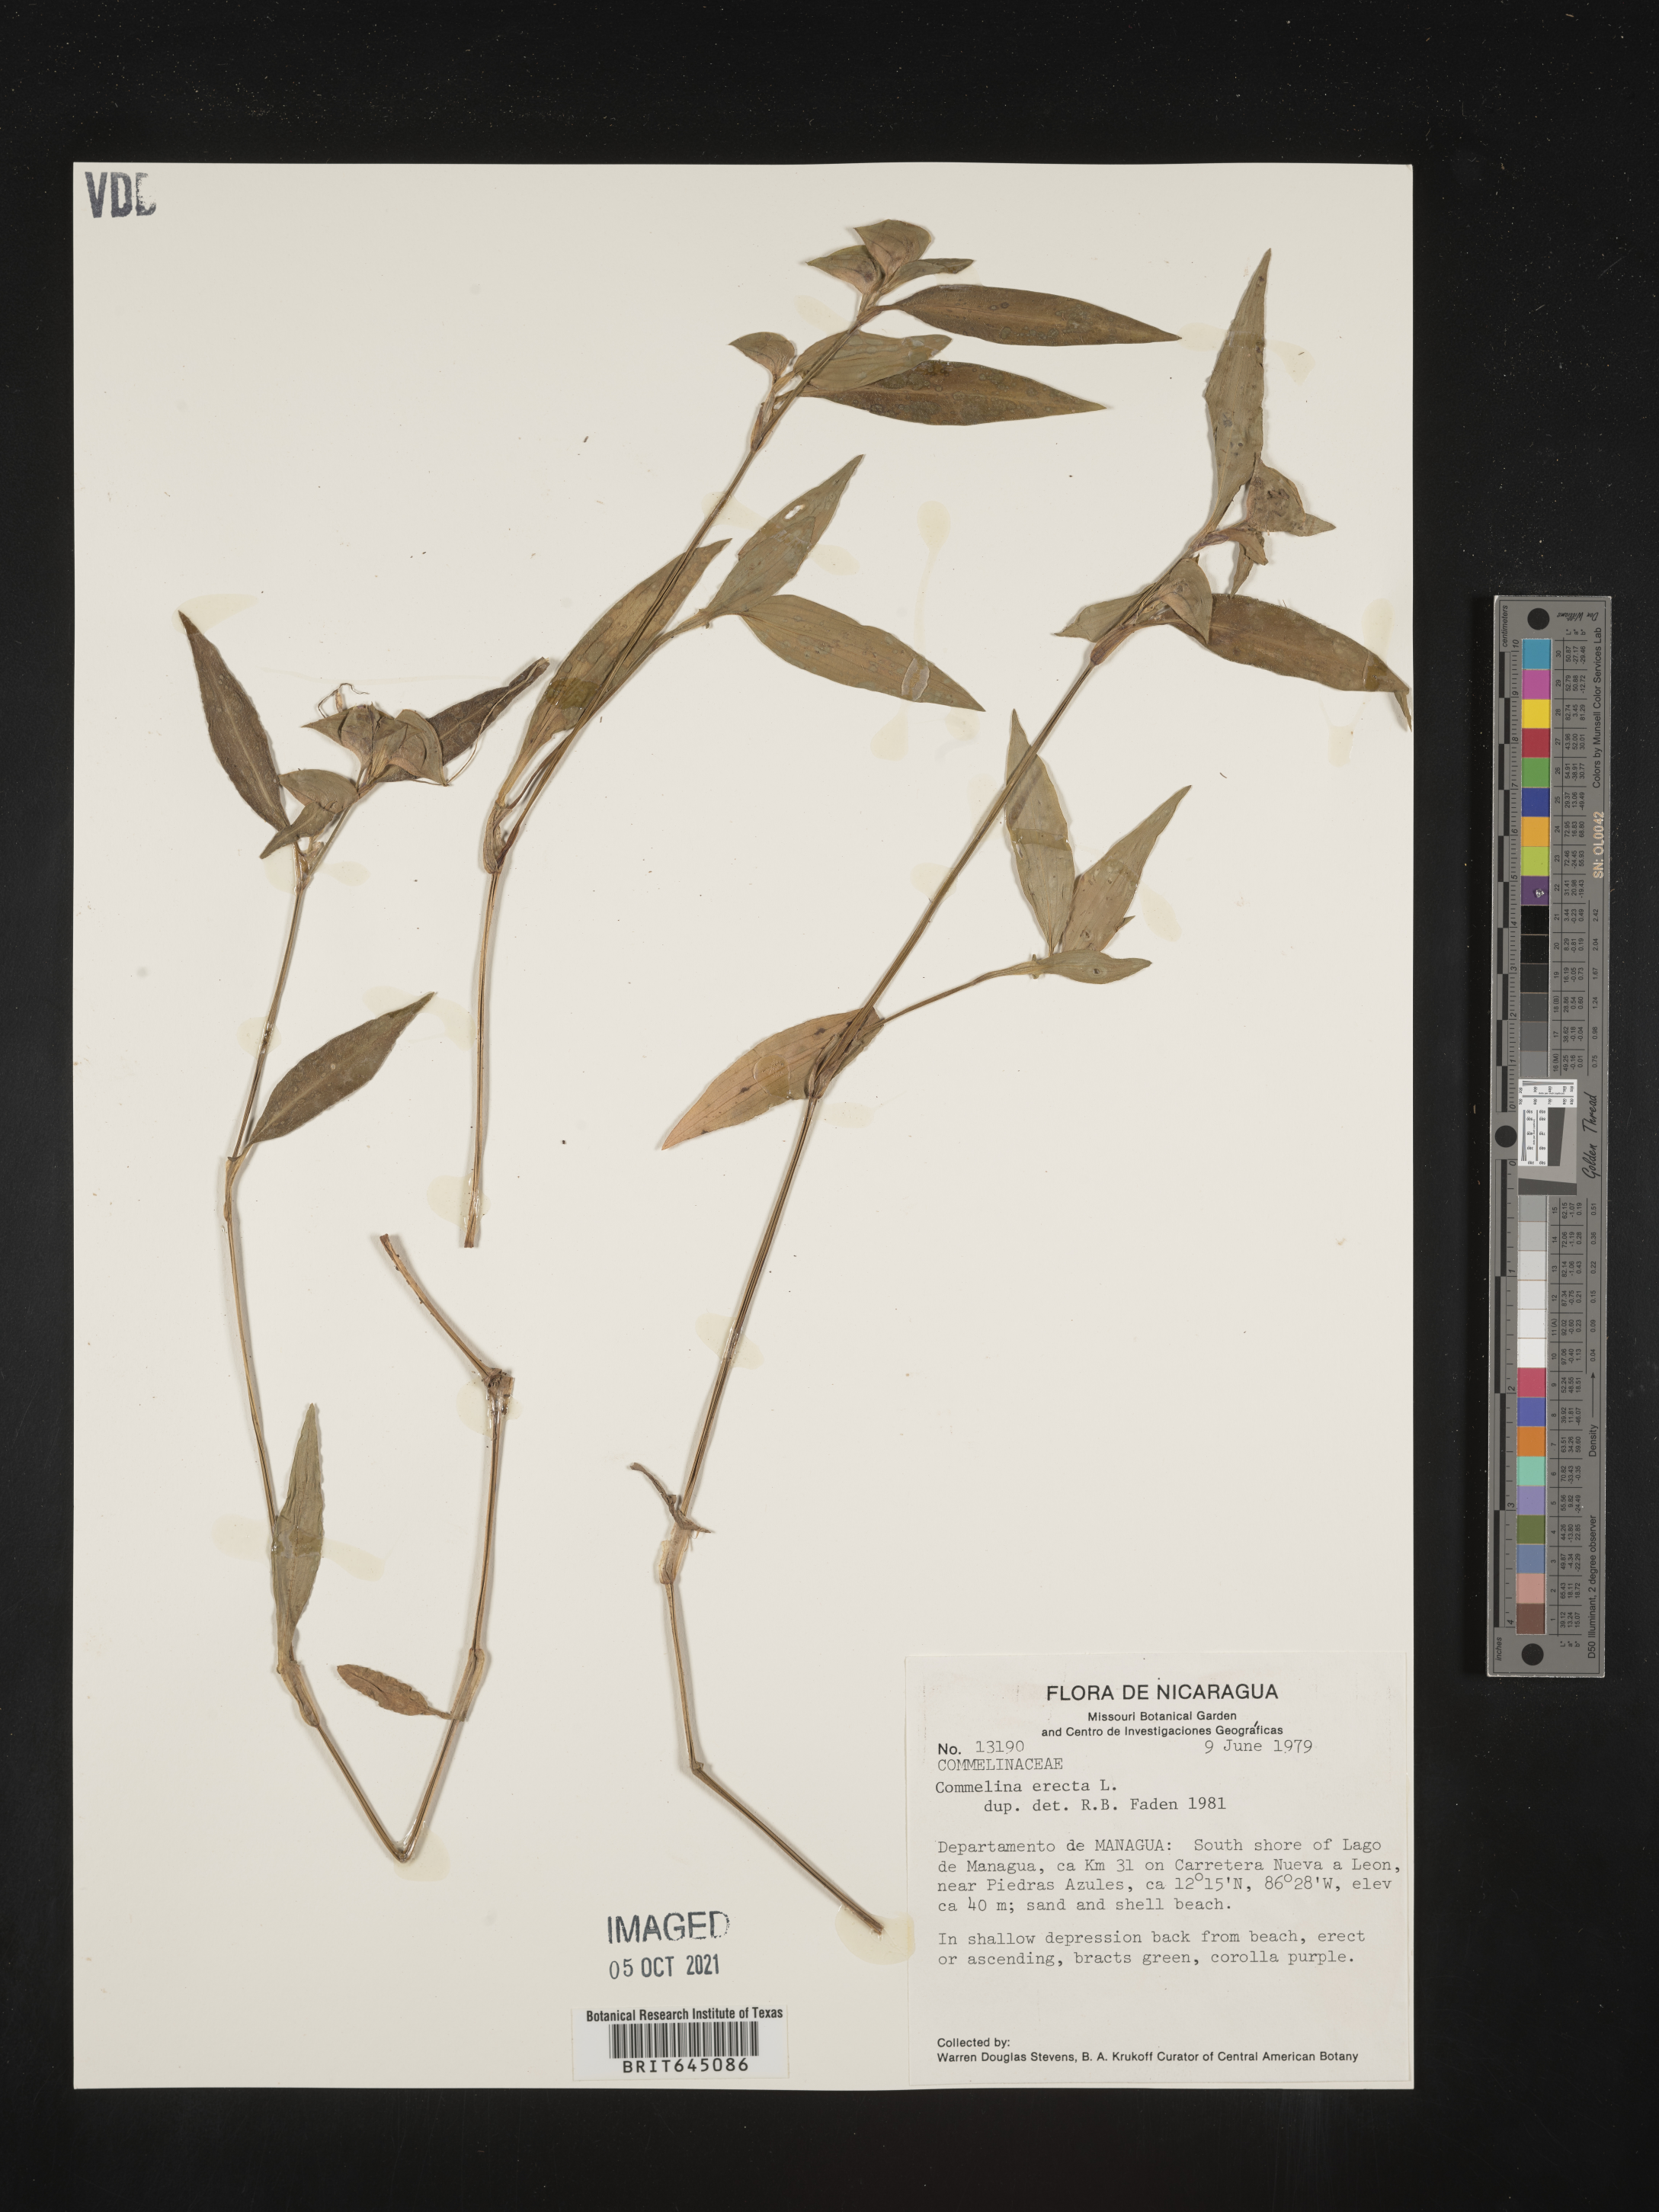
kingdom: Plantae
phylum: Tracheophyta
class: Liliopsida
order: Commelinales
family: Commelinaceae
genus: Commelina
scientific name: Commelina erecta
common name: Blousel blommetjie
